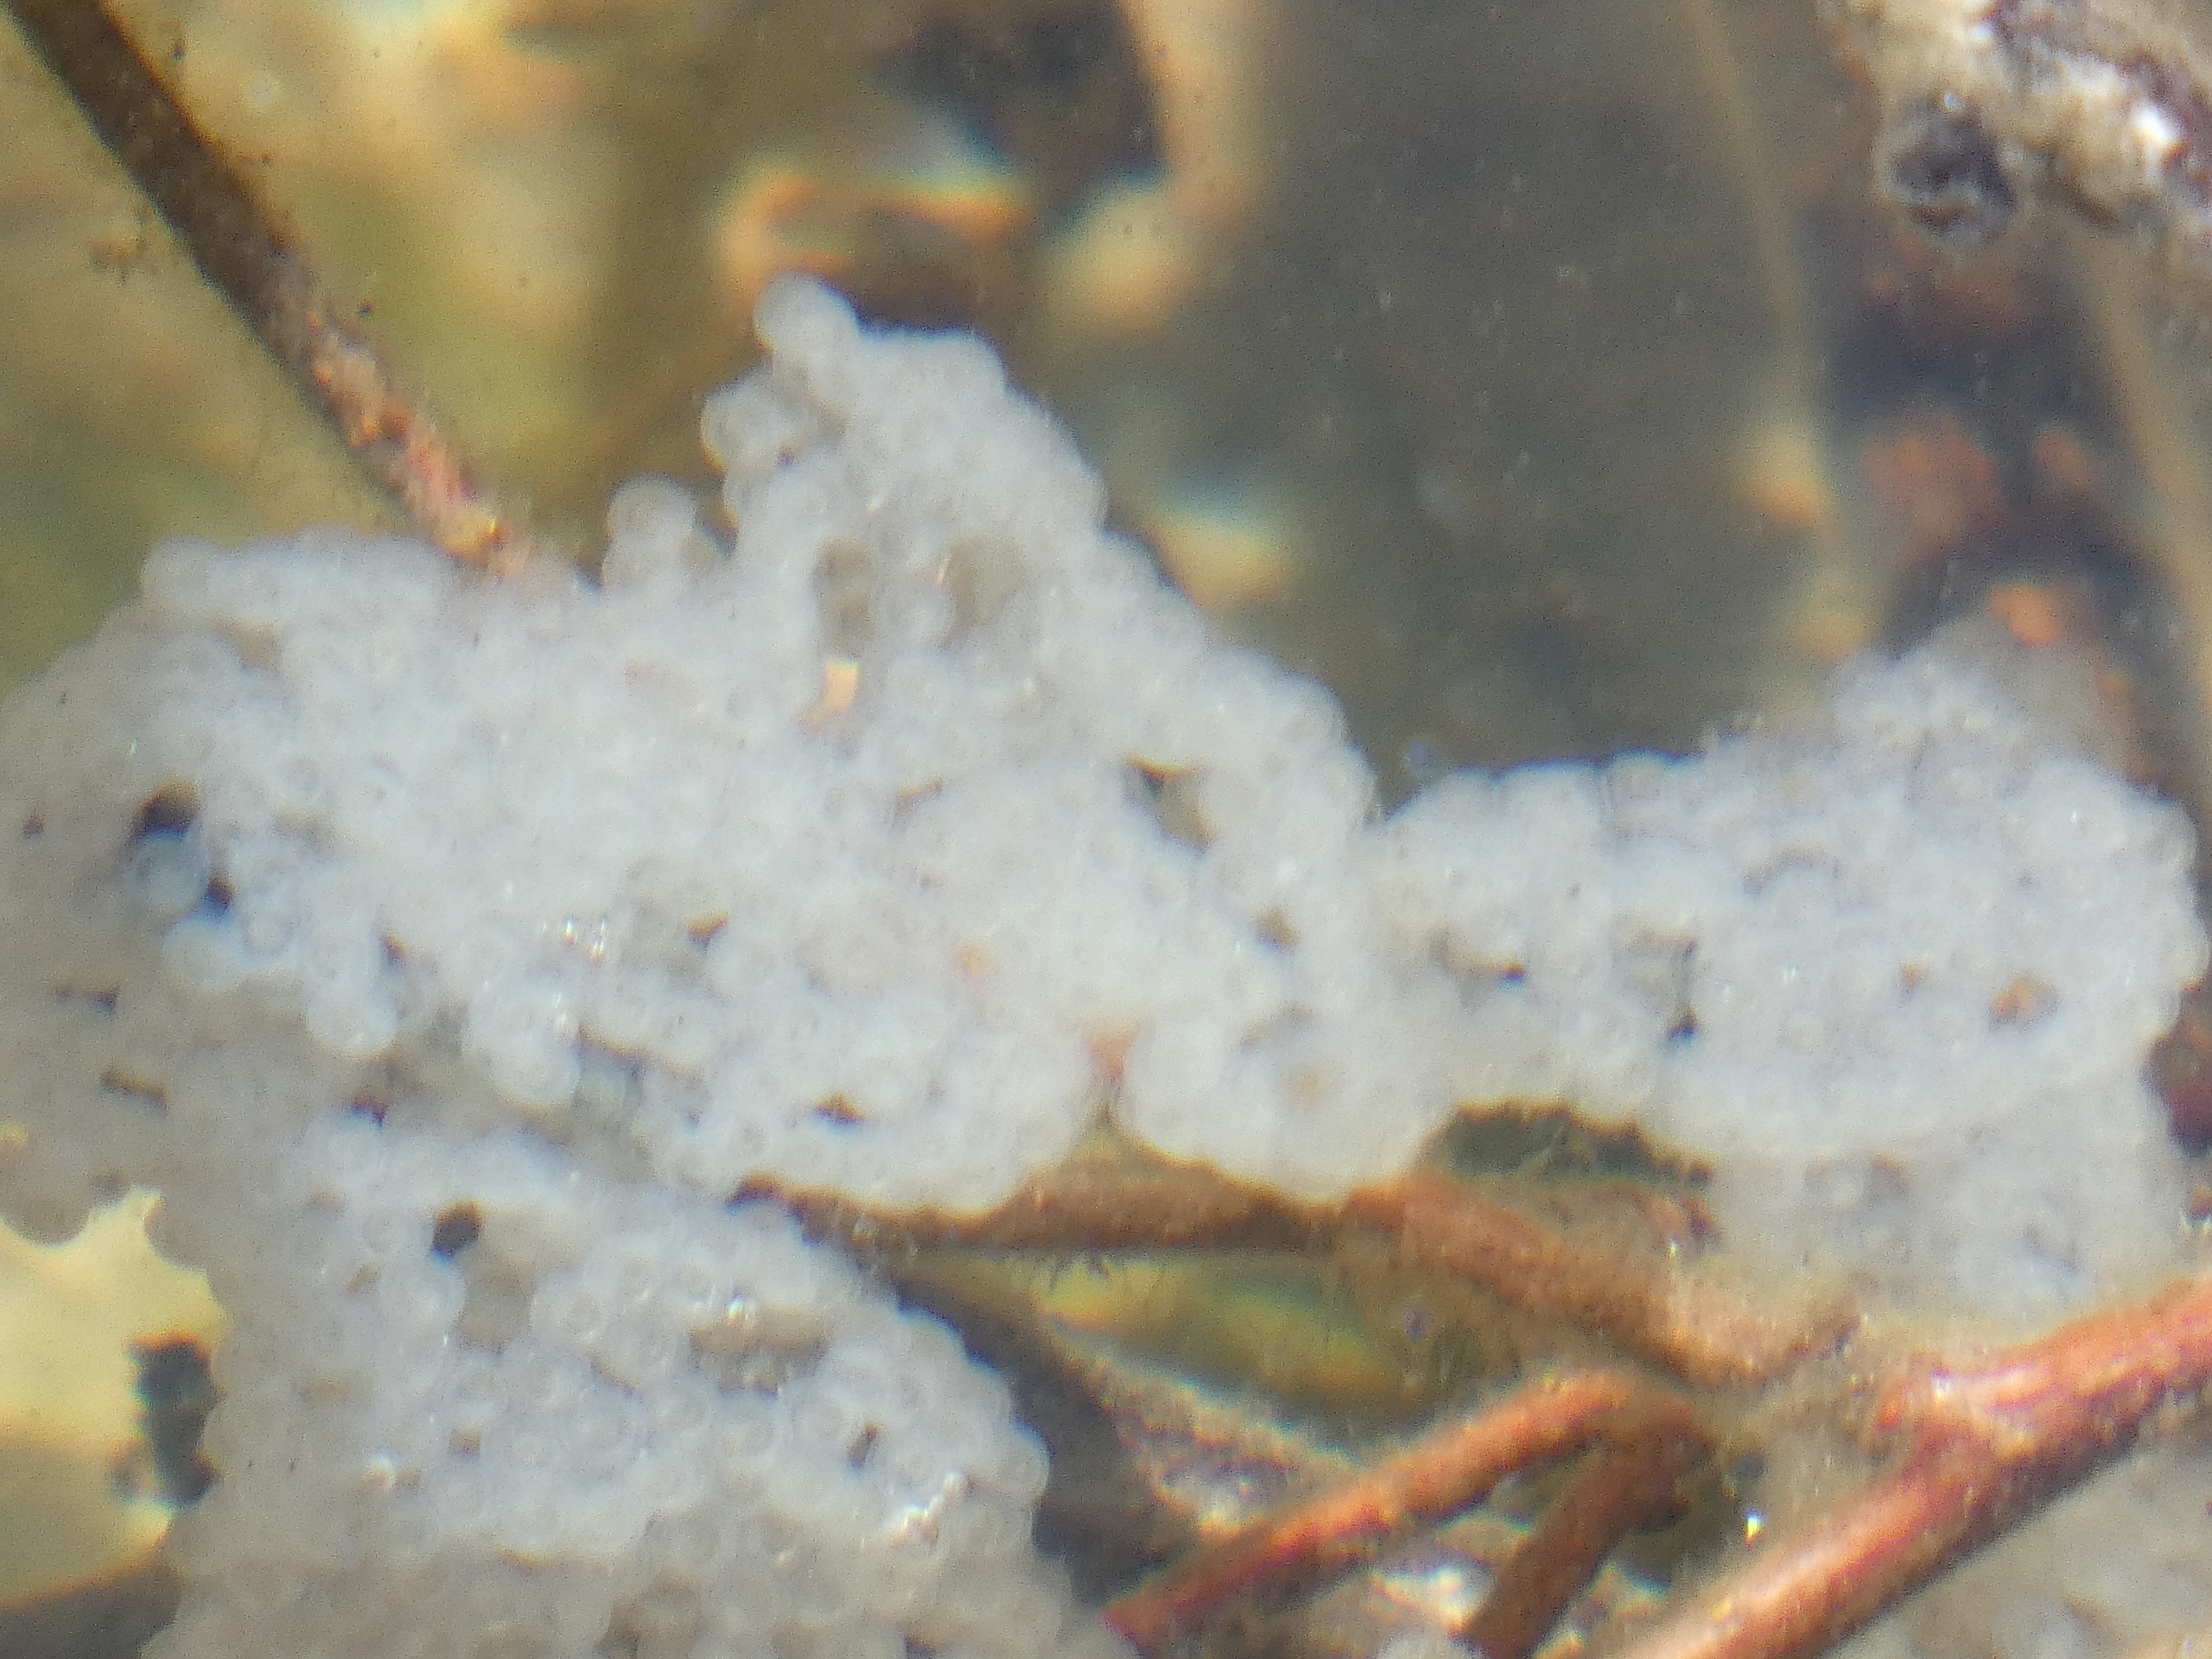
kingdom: Animalia
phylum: Chordata
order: Perciformes
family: Percidae
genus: Perca
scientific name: Perca fluviatilis
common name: Aborre
